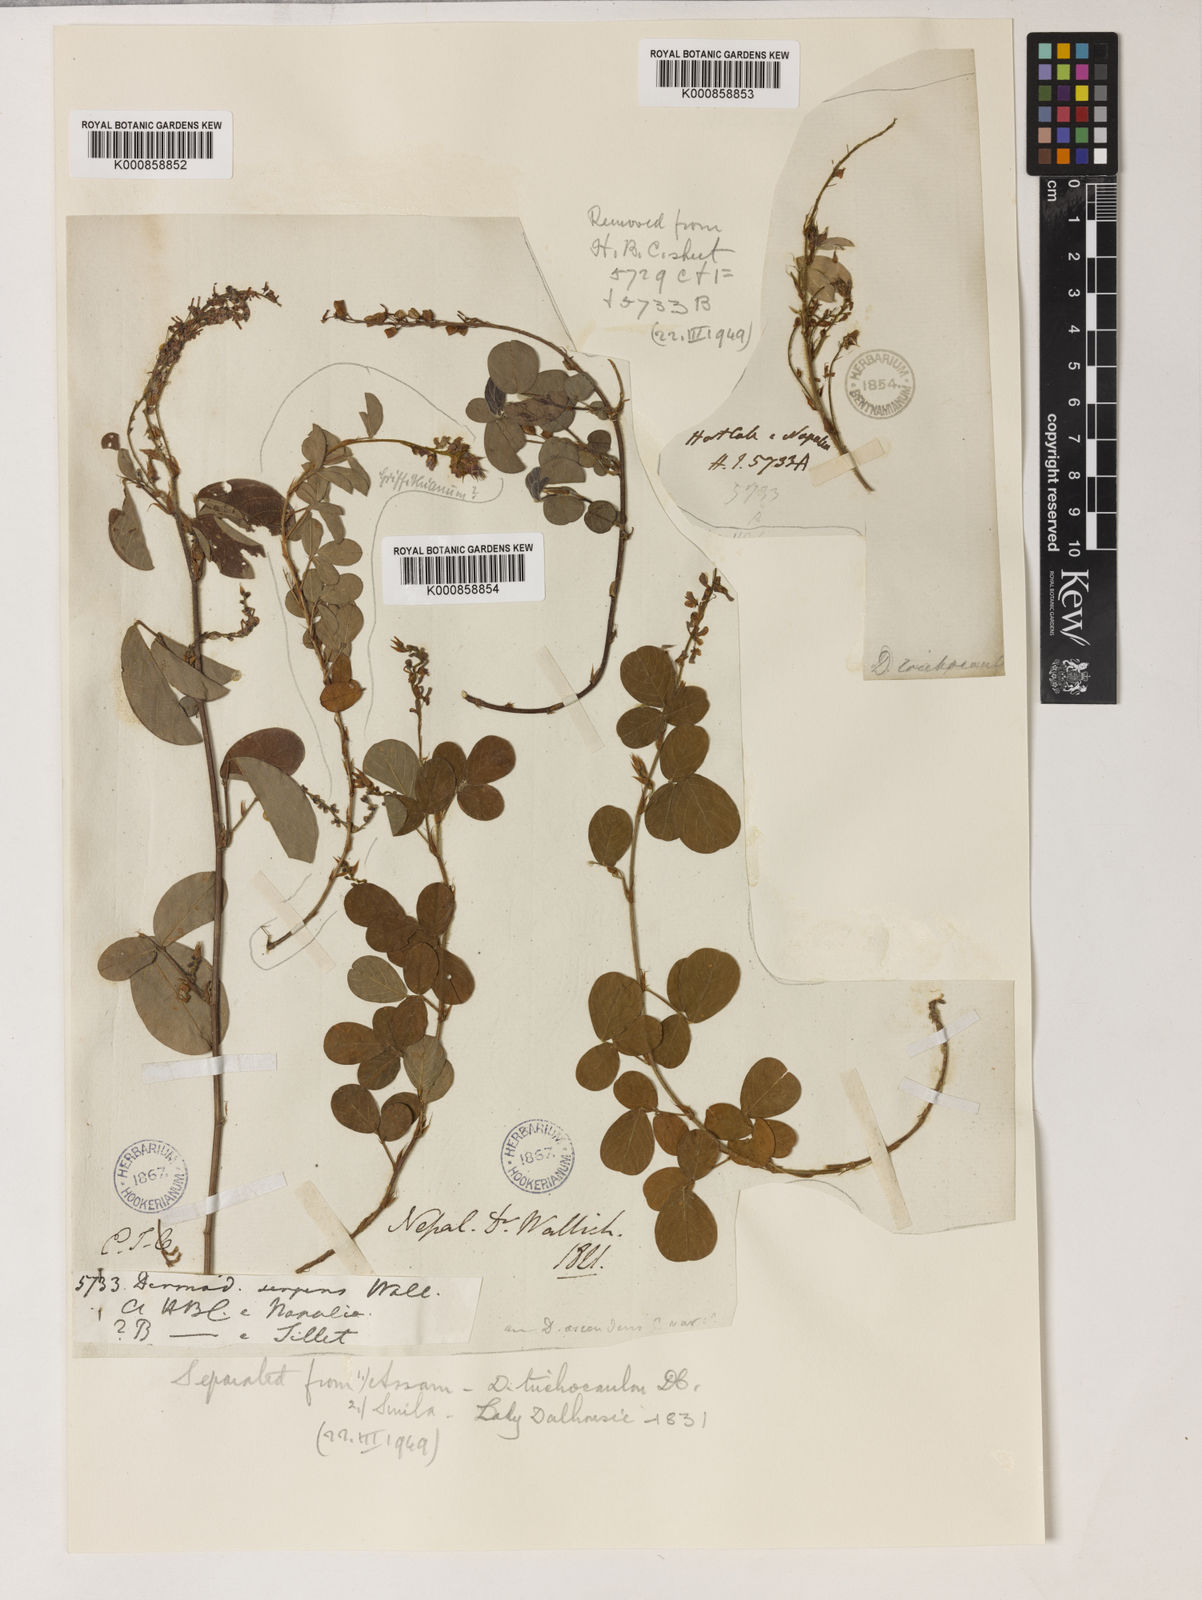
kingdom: Plantae
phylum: Tracheophyta
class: Magnoliopsida
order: Fabales
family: Fabaceae
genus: Grona
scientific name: Grona heterocarpos
